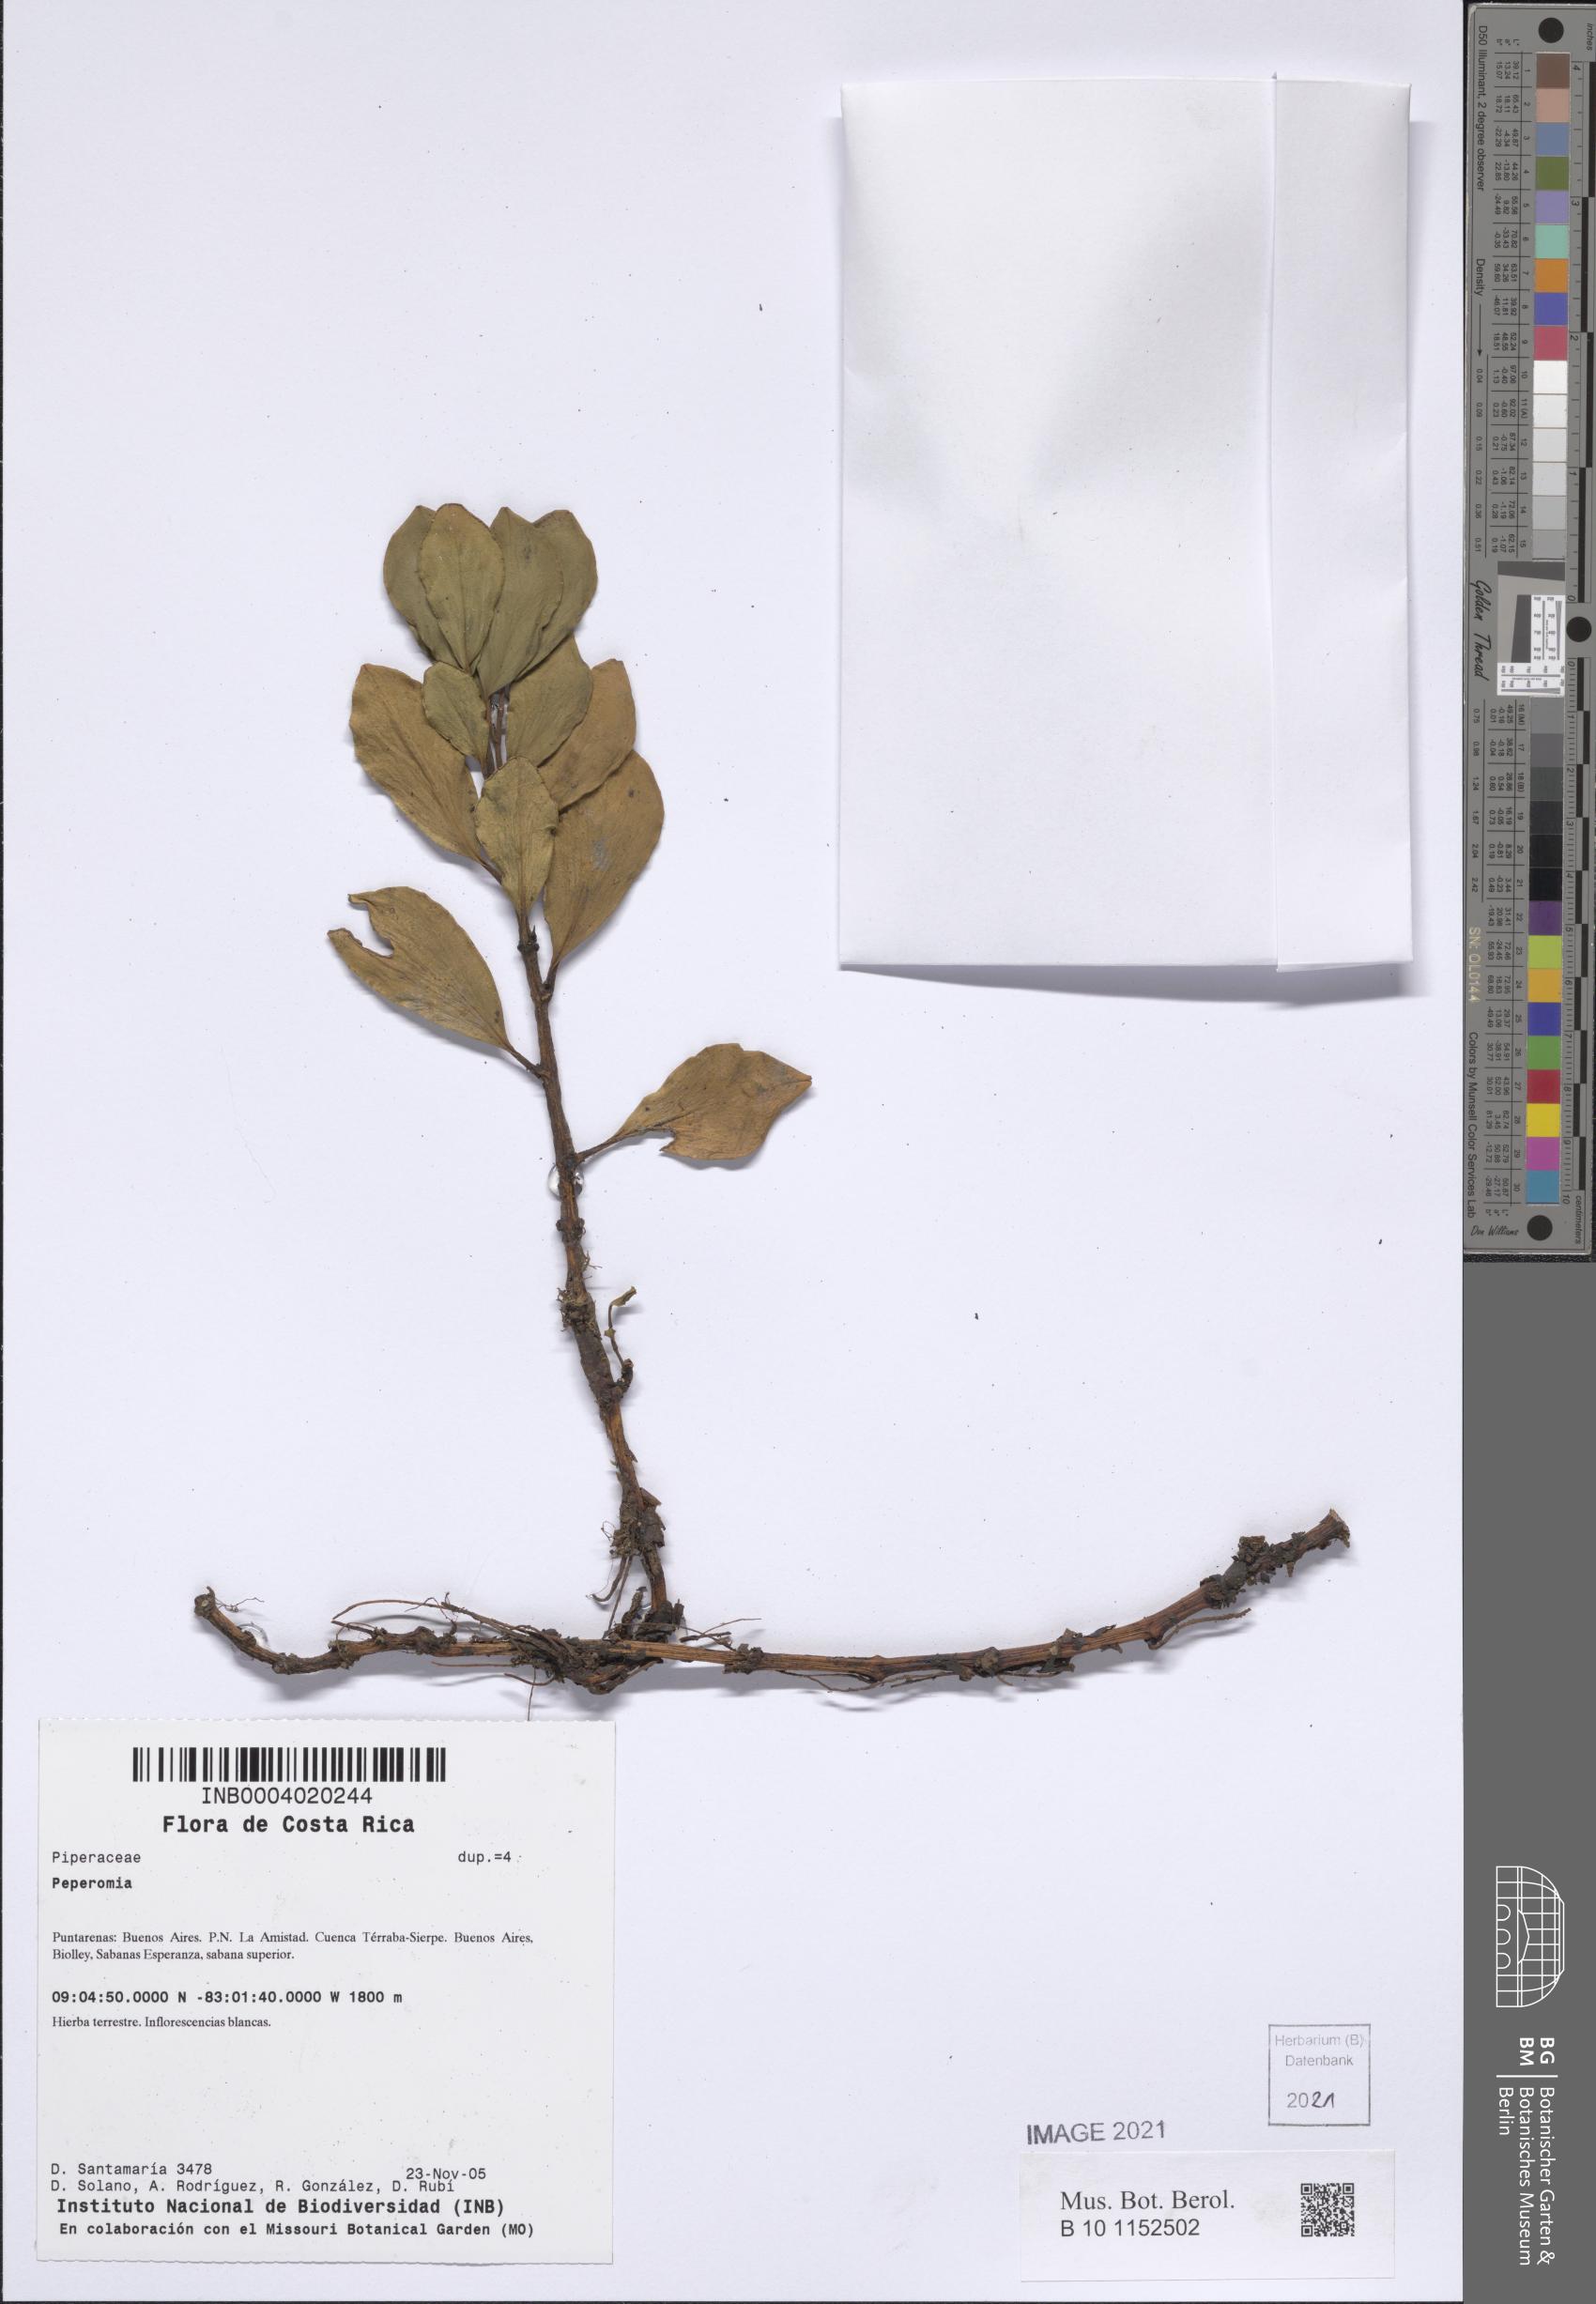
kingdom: Plantae
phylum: Tracheophyta
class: Magnoliopsida
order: Piperales
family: Piperaceae
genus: Peperomia
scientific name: Peperomia
